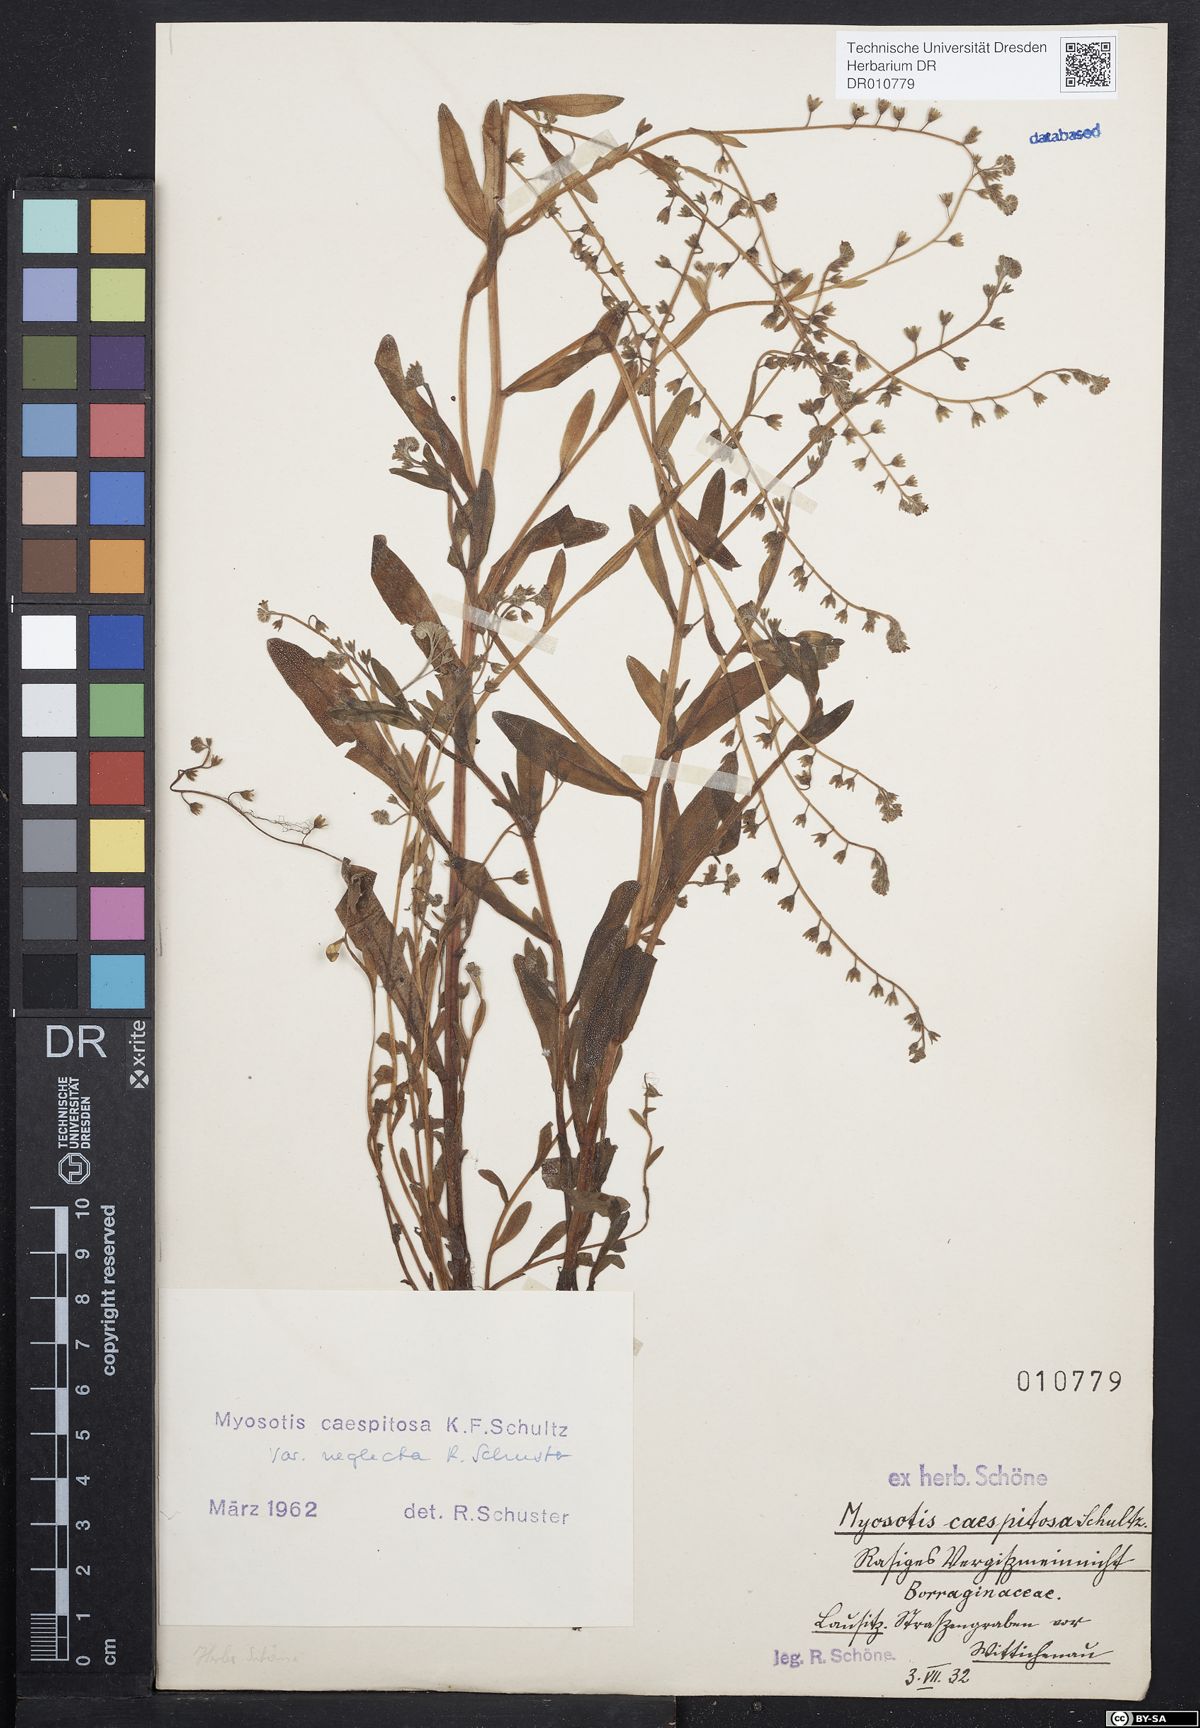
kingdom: Plantae
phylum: Tracheophyta
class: Magnoliopsida
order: Boraginales
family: Boraginaceae
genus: Myosotis
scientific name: Myosotis laxa
